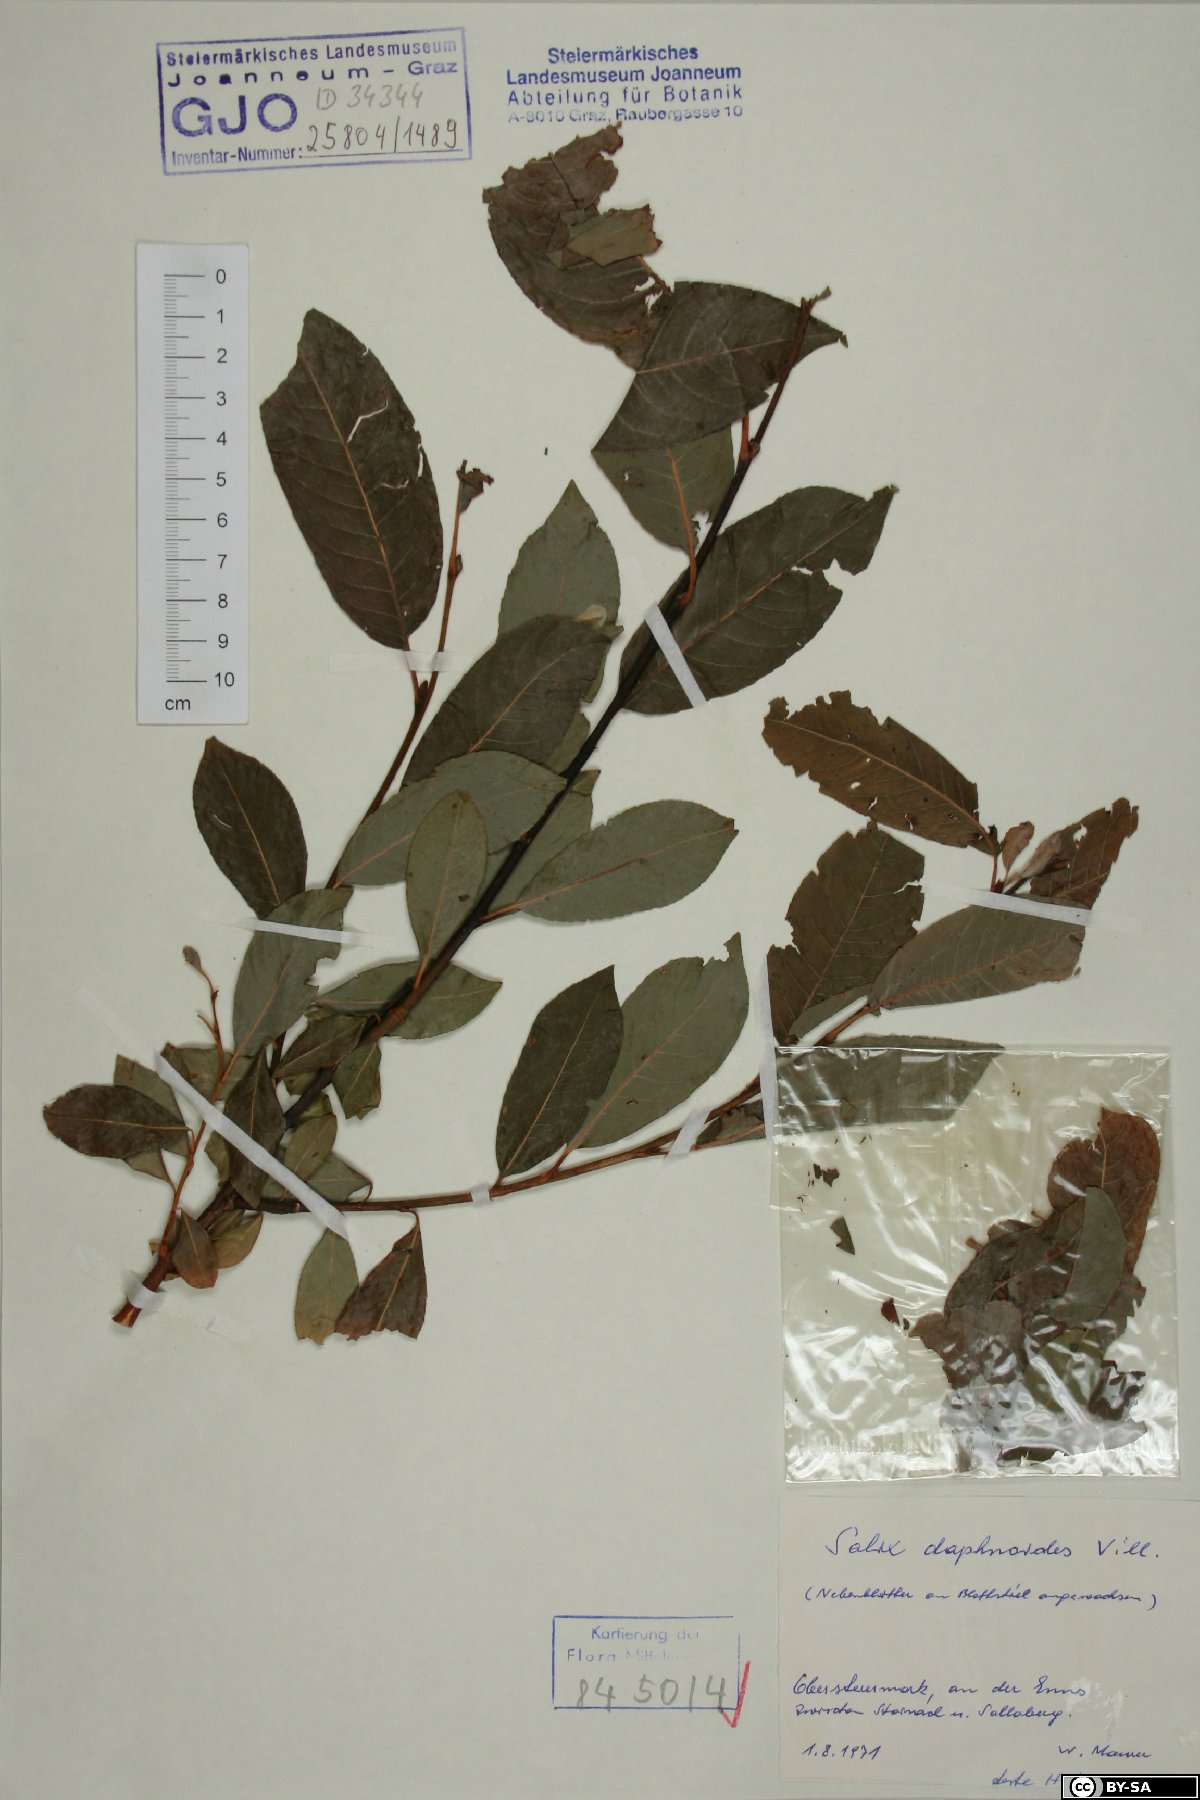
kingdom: Plantae
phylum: Tracheophyta
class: Magnoliopsida
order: Malpighiales
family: Salicaceae
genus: Salix
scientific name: Salix daphnoides
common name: European violet-willow
